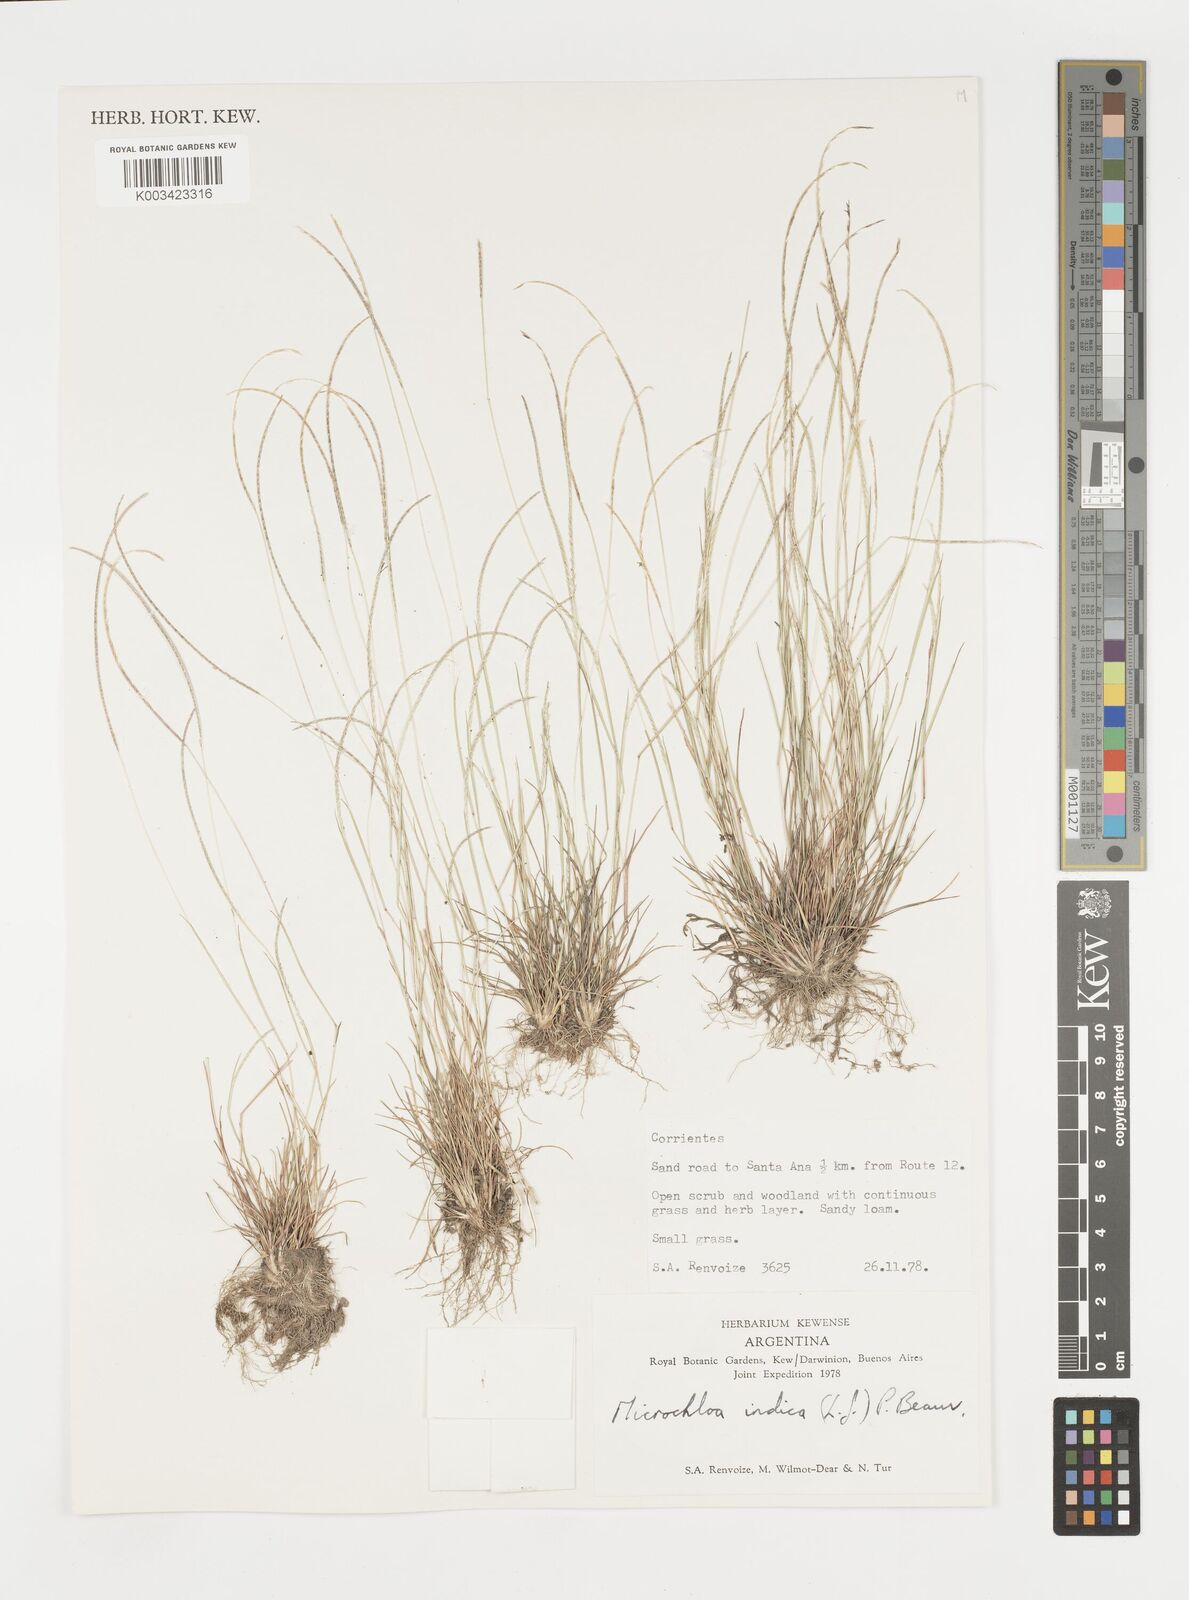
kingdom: Plantae
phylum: Tracheophyta
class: Liliopsida
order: Poales
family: Poaceae
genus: Microchloa
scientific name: Microchloa indica
